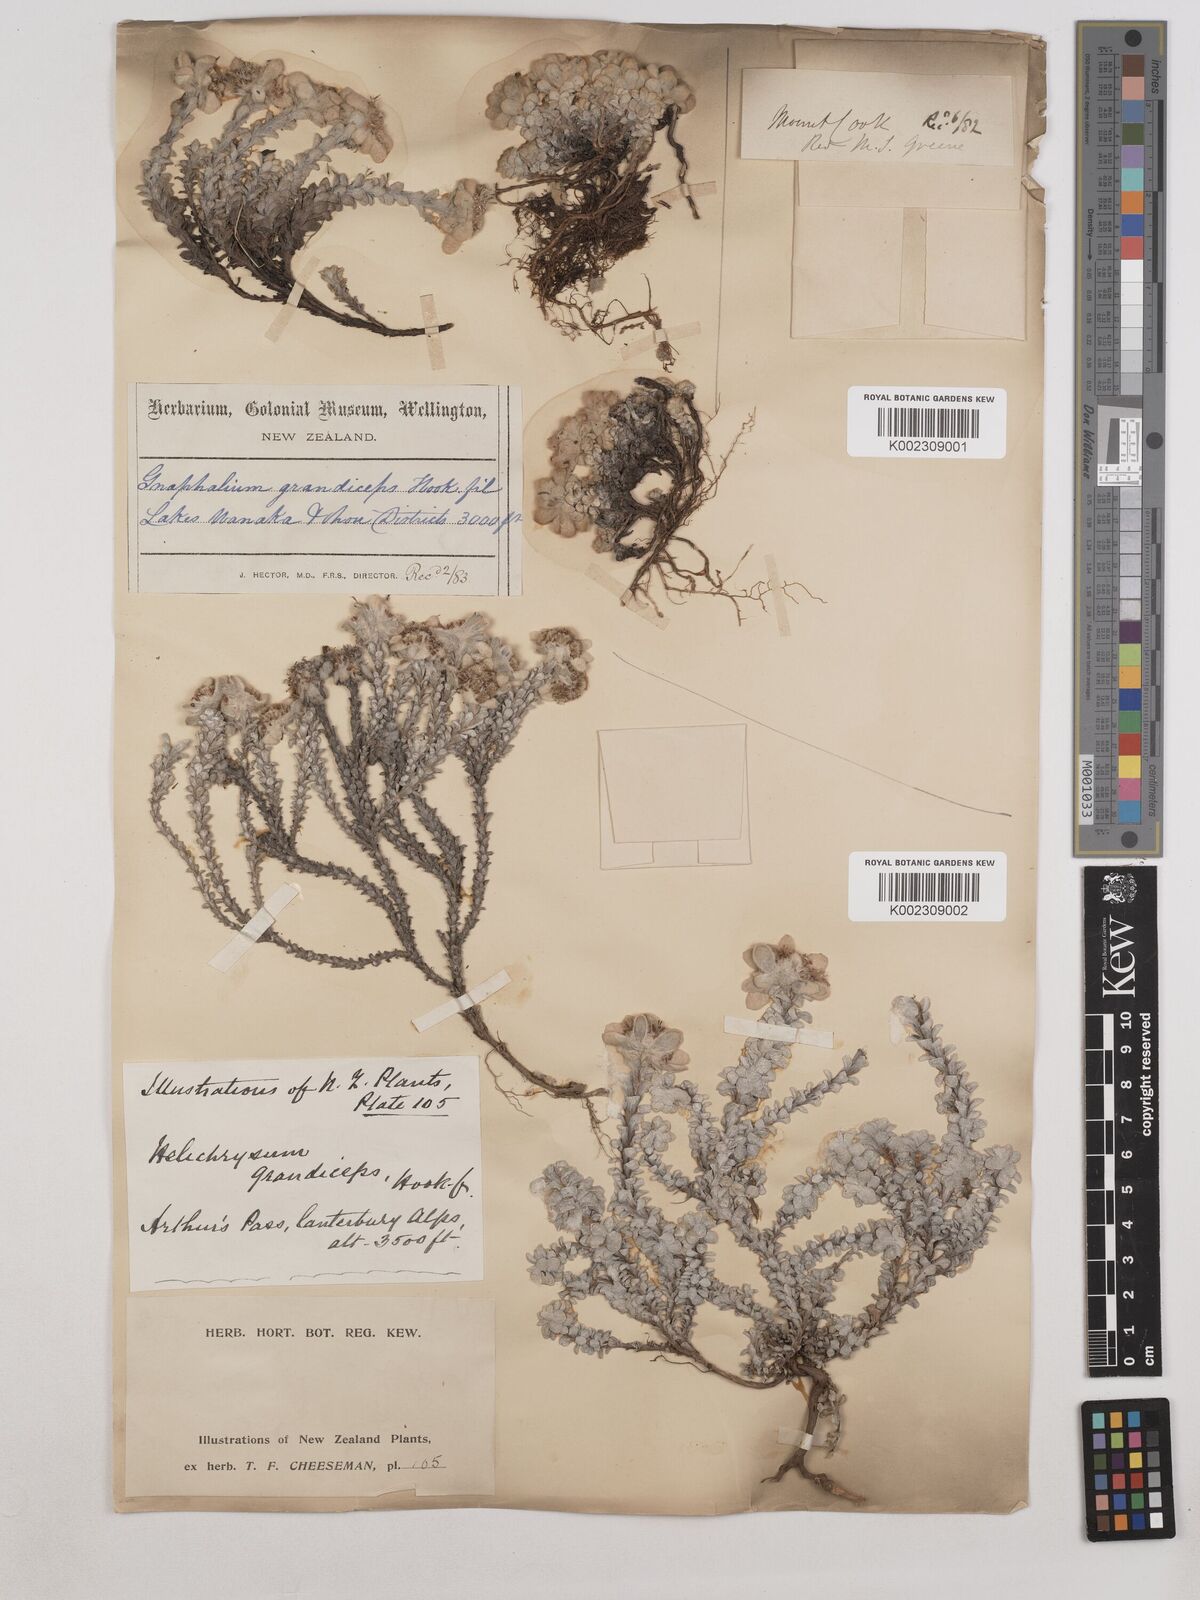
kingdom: Plantae
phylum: Tracheophyta
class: Magnoliopsida
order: Asterales
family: Asteraceae
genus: Leucogenes
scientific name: Leucogenes grandiceps
